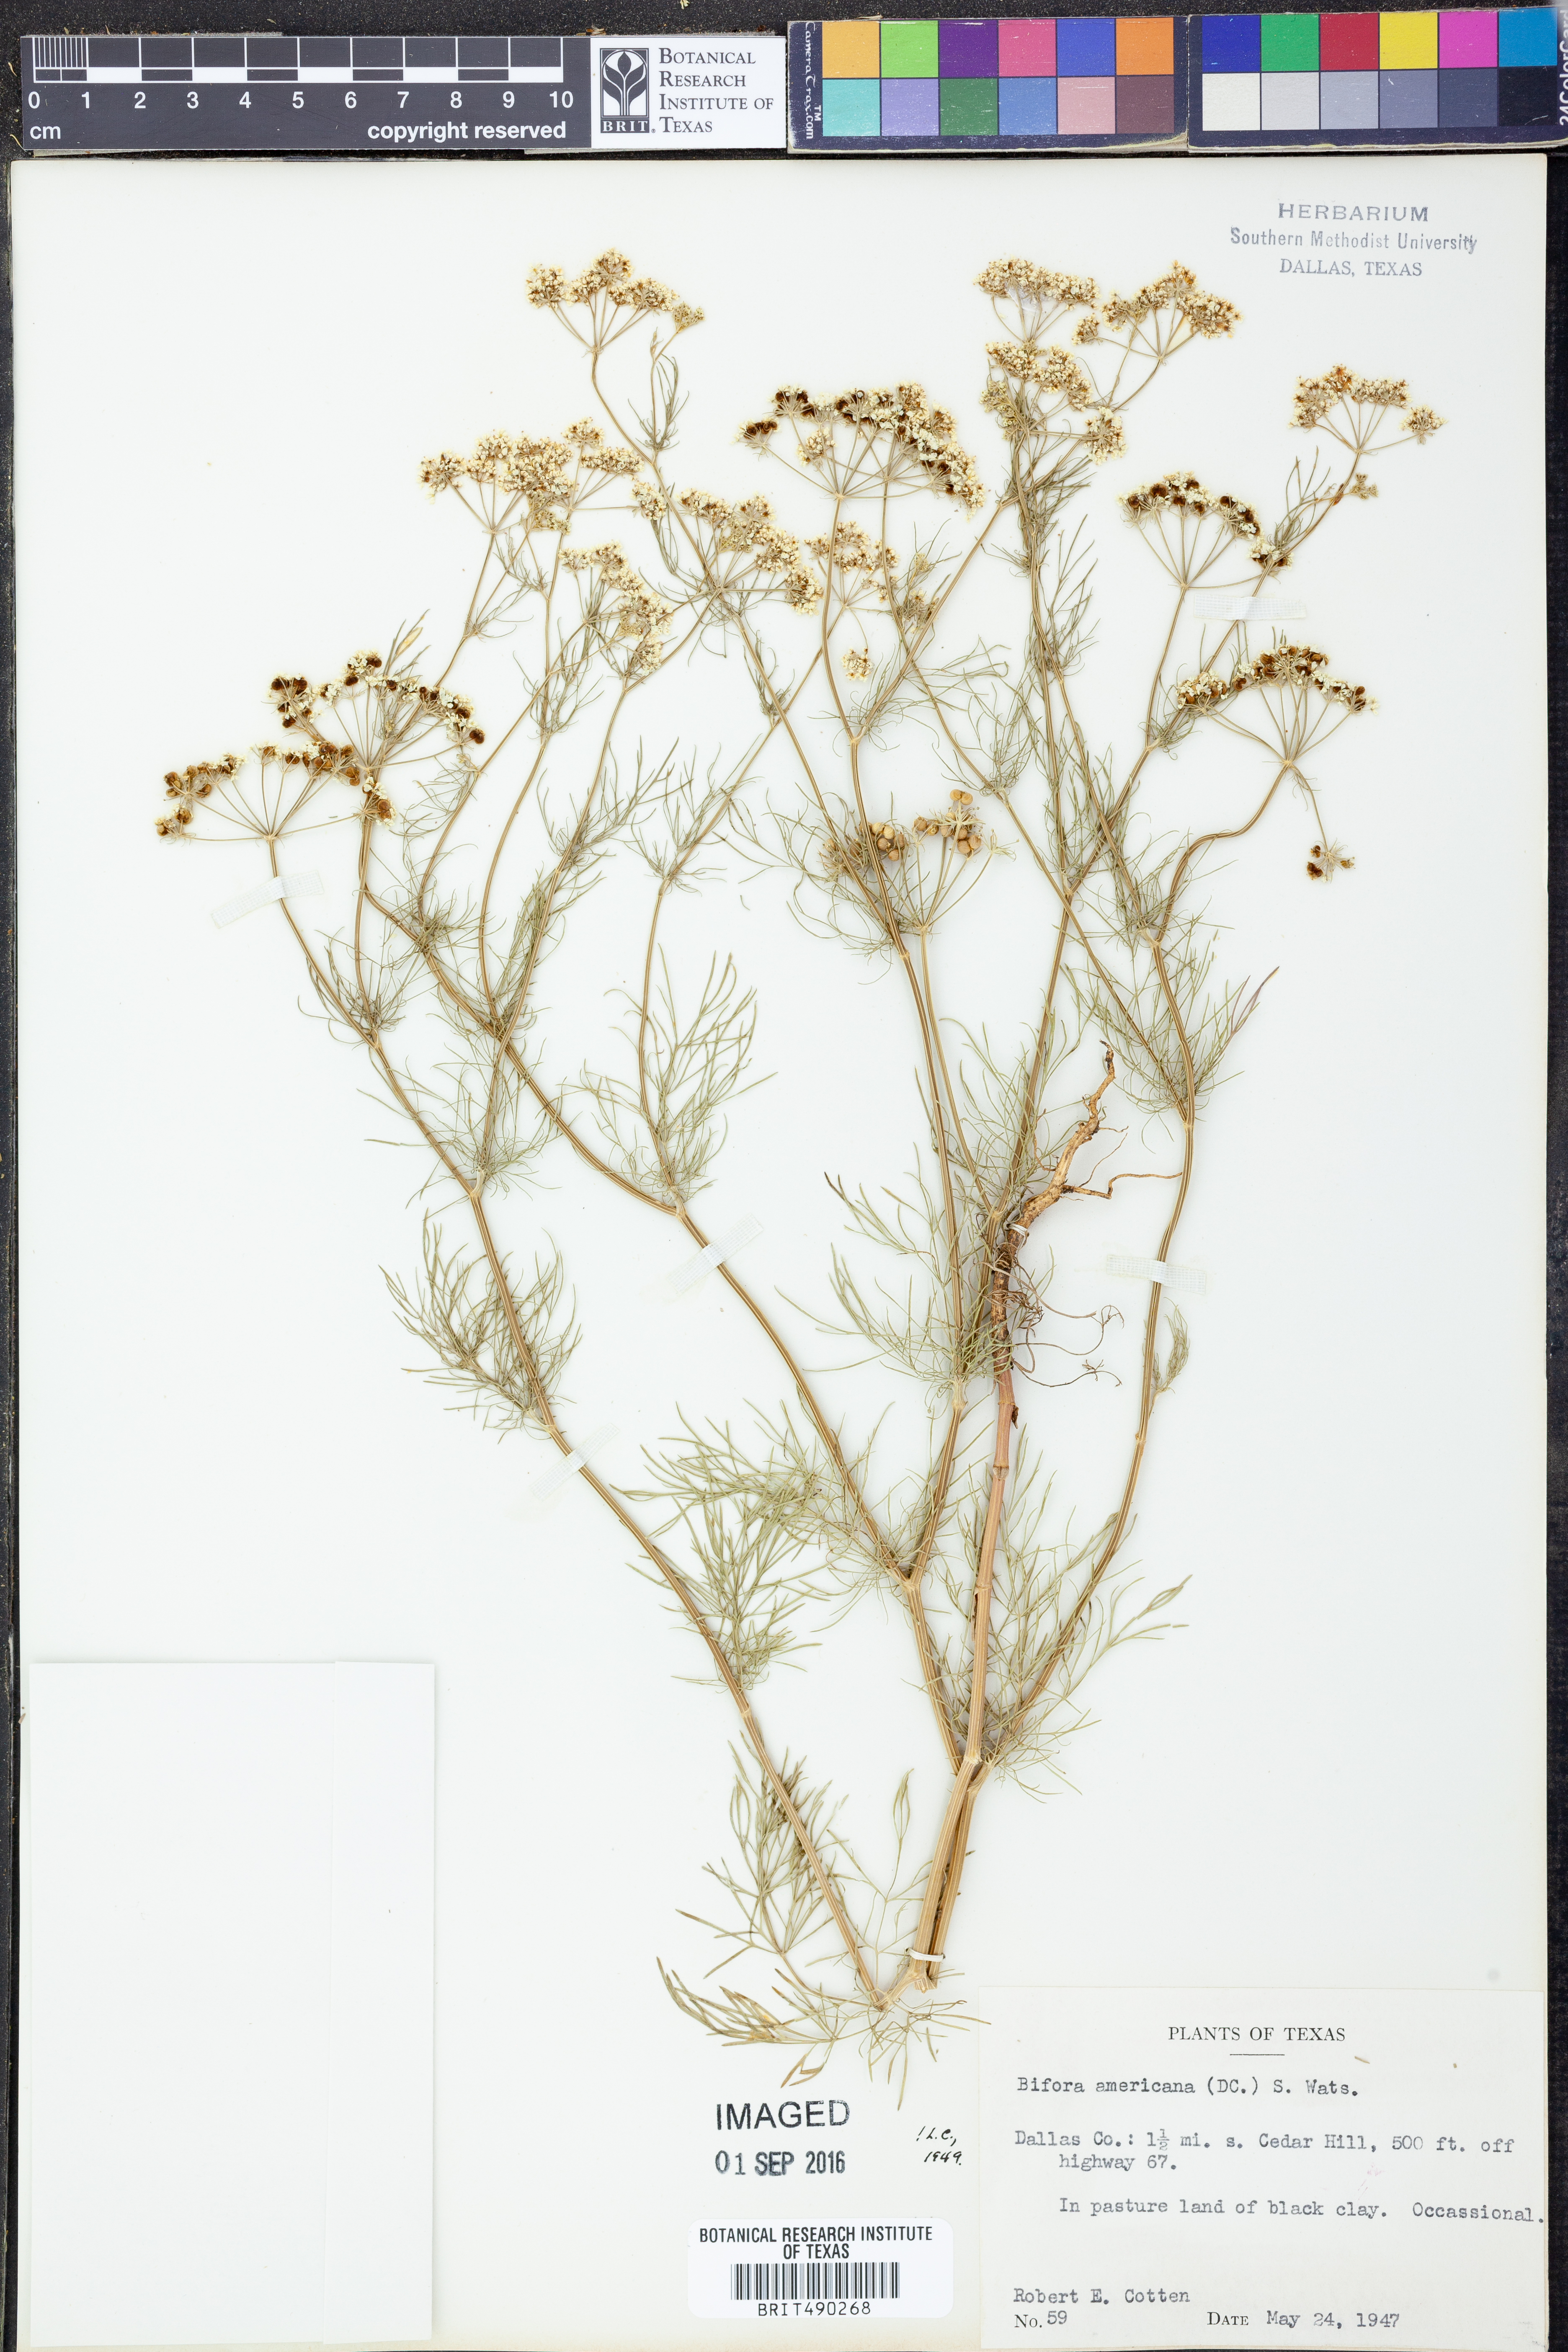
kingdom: Plantae
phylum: Tracheophyta
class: Magnoliopsida
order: Apiales
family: Apiaceae
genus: Atrema
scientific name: Atrema americanum
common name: Prairie-bishop
